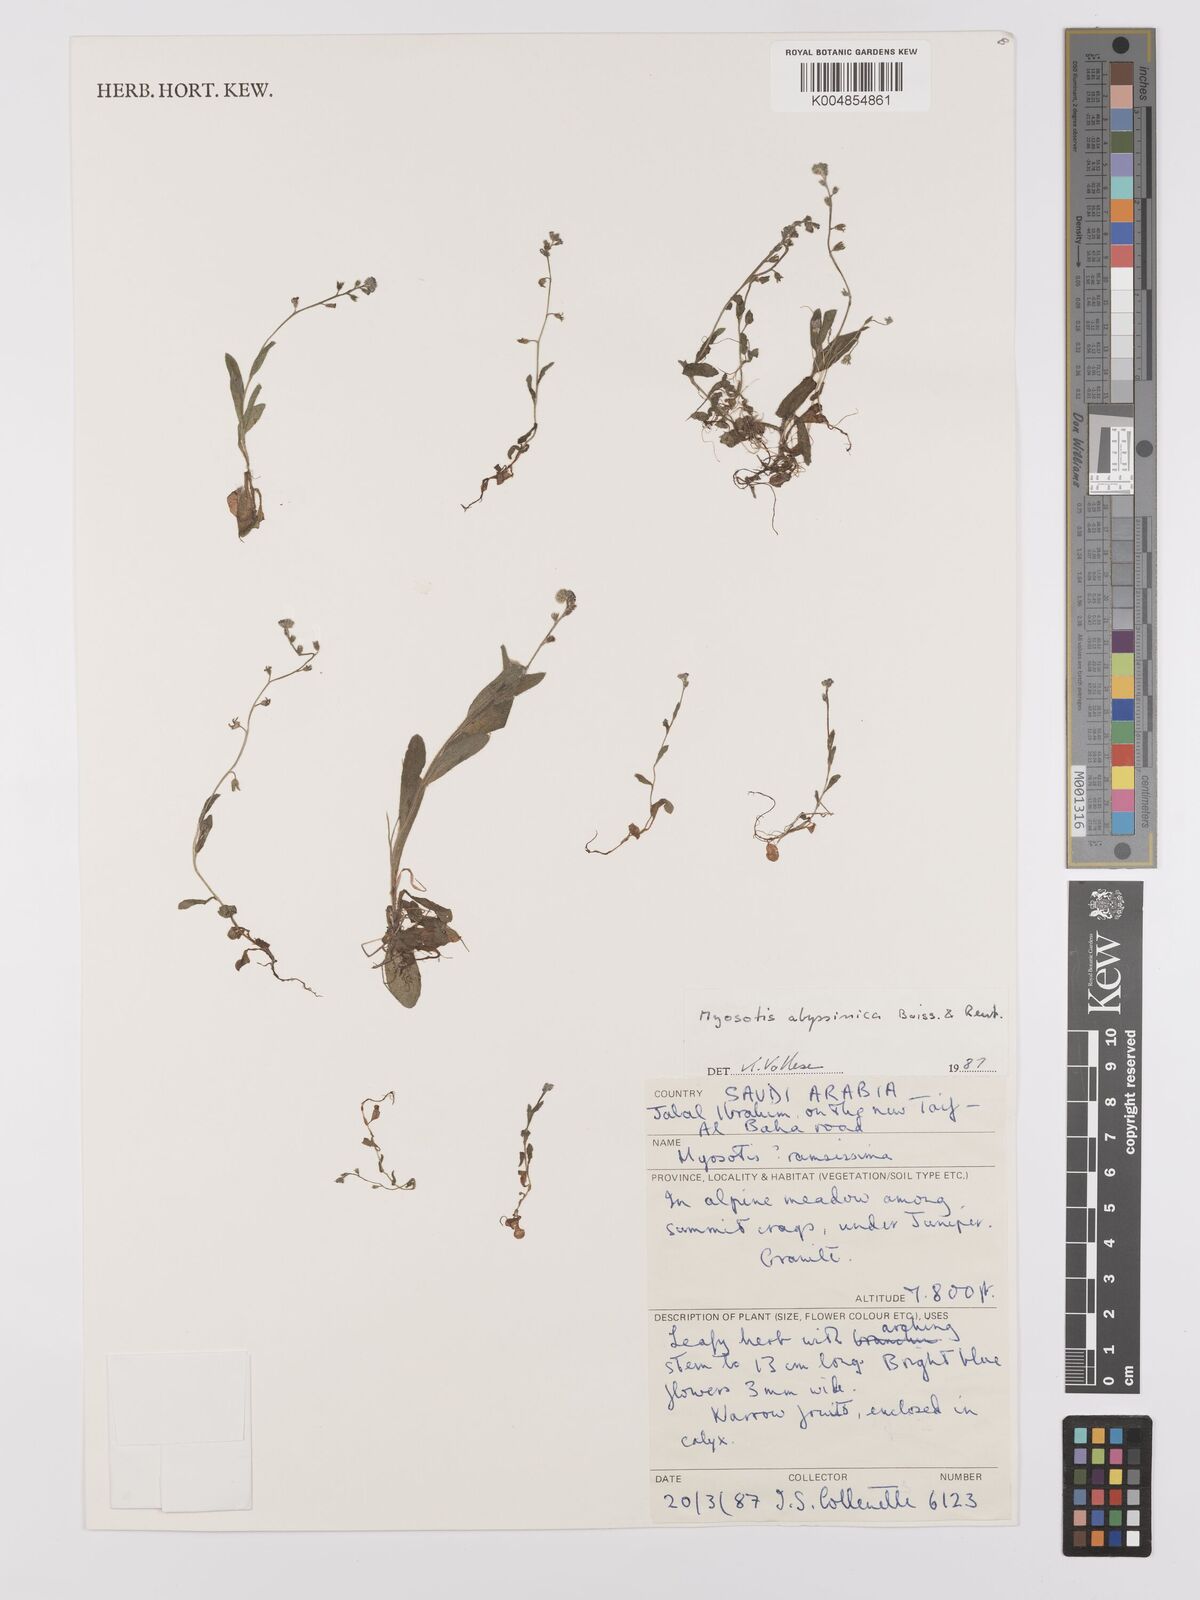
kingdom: Plantae
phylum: Tracheophyta
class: Magnoliopsida
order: Boraginales
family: Boraginaceae
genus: Myosotis
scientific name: Myosotis abyssinica
